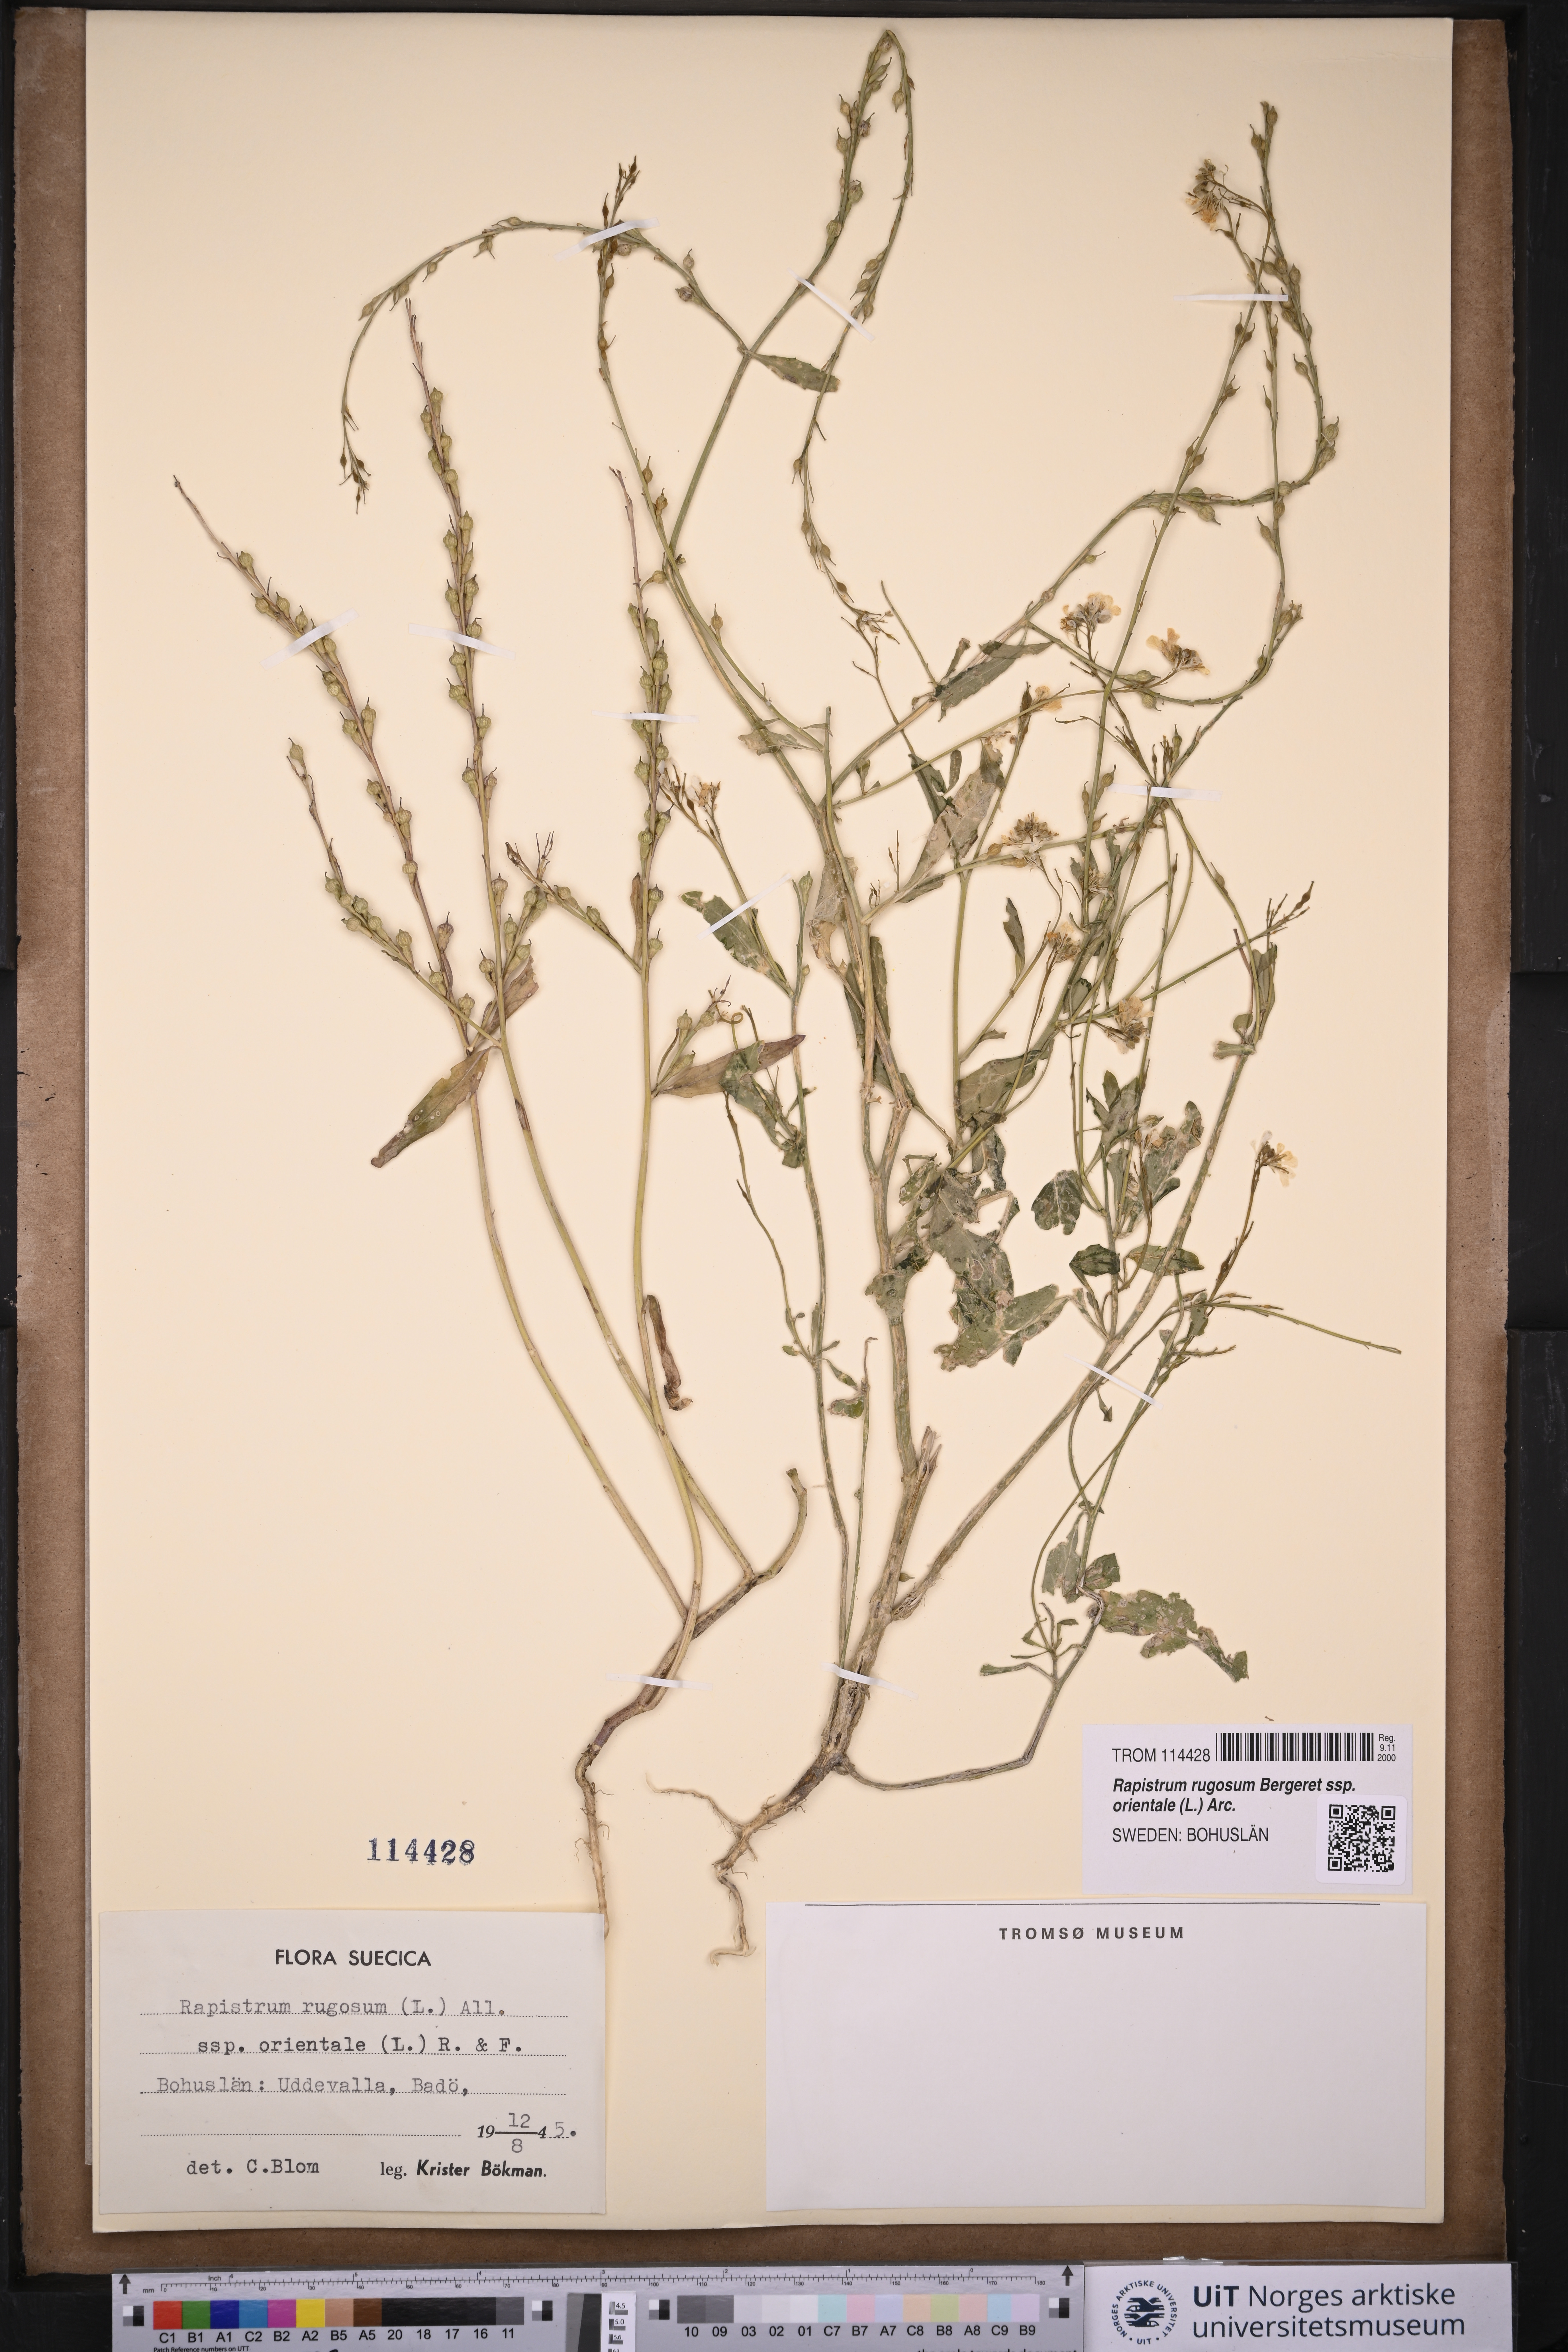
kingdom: Plantae
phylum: Tracheophyta
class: Magnoliopsida
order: Brassicales
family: Brassicaceae
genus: Rapistrum
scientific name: Rapistrum rugosum
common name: Annual bastardcabbage
